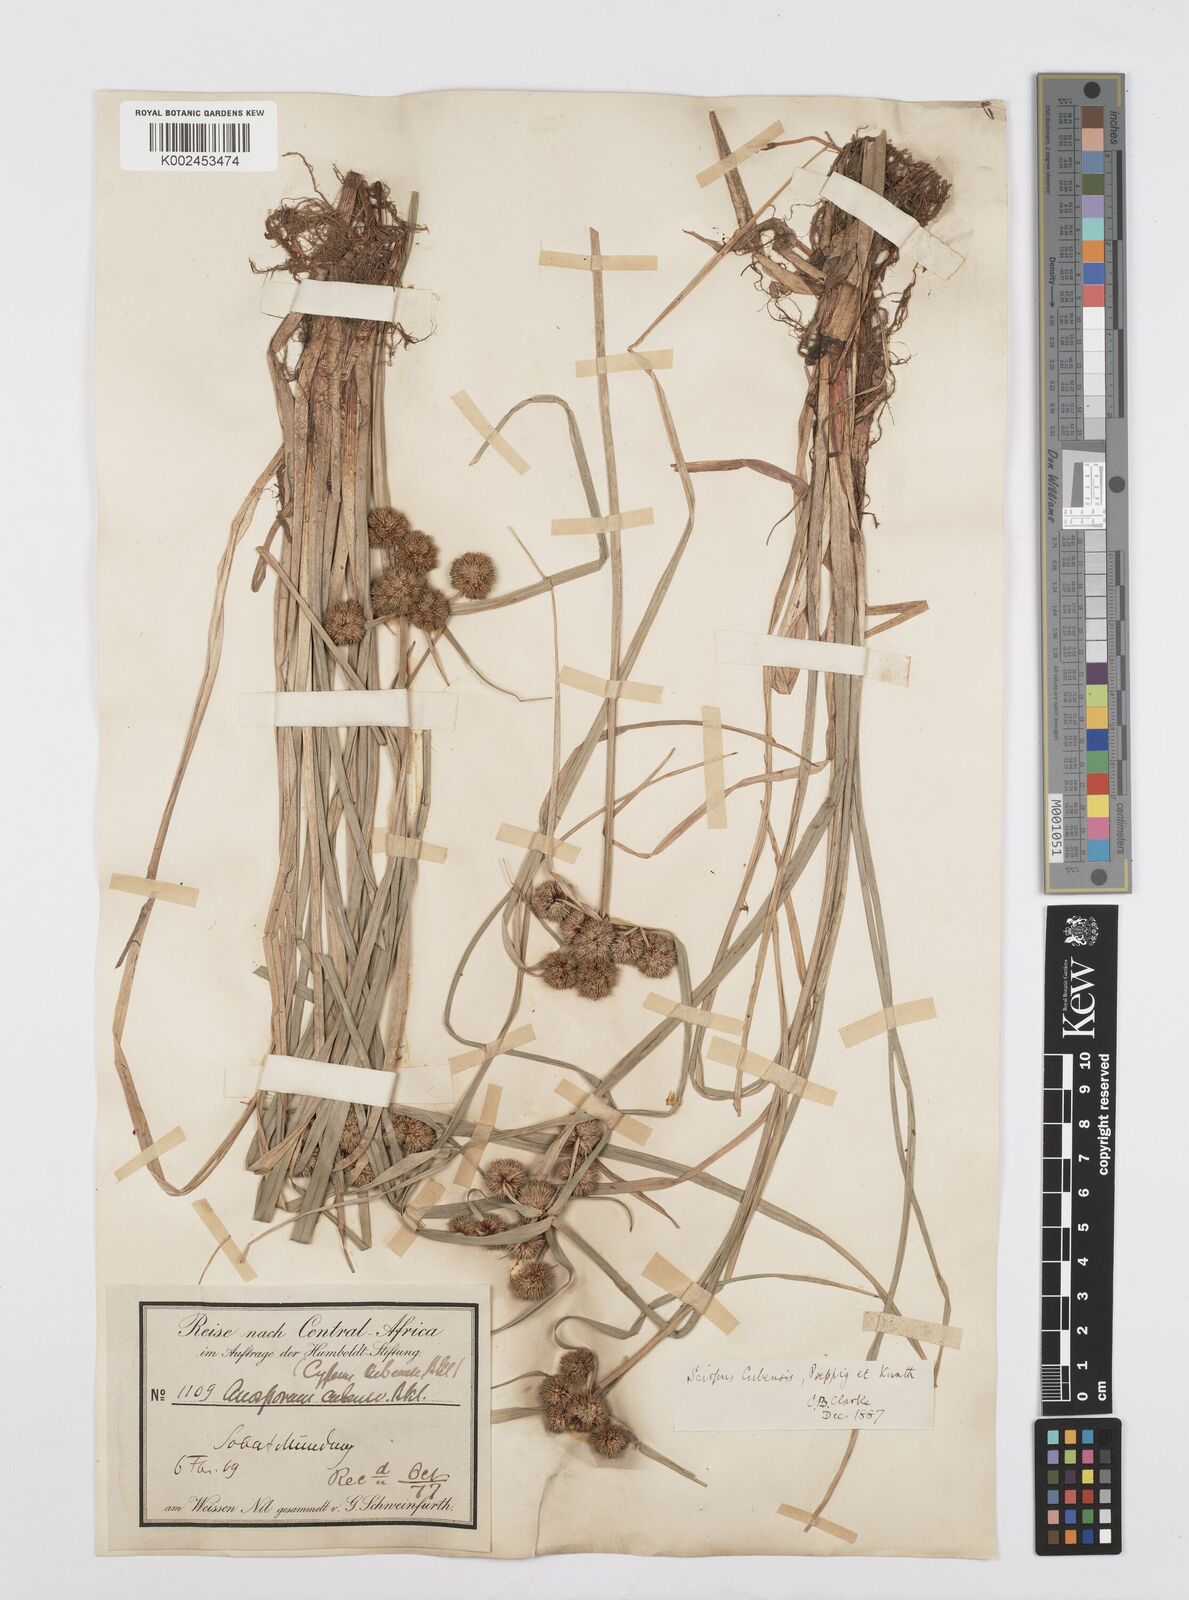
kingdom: Plantae
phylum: Tracheophyta
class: Liliopsida
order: Poales
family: Cyperaceae
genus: Cyperus
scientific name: Cyperus elegans
